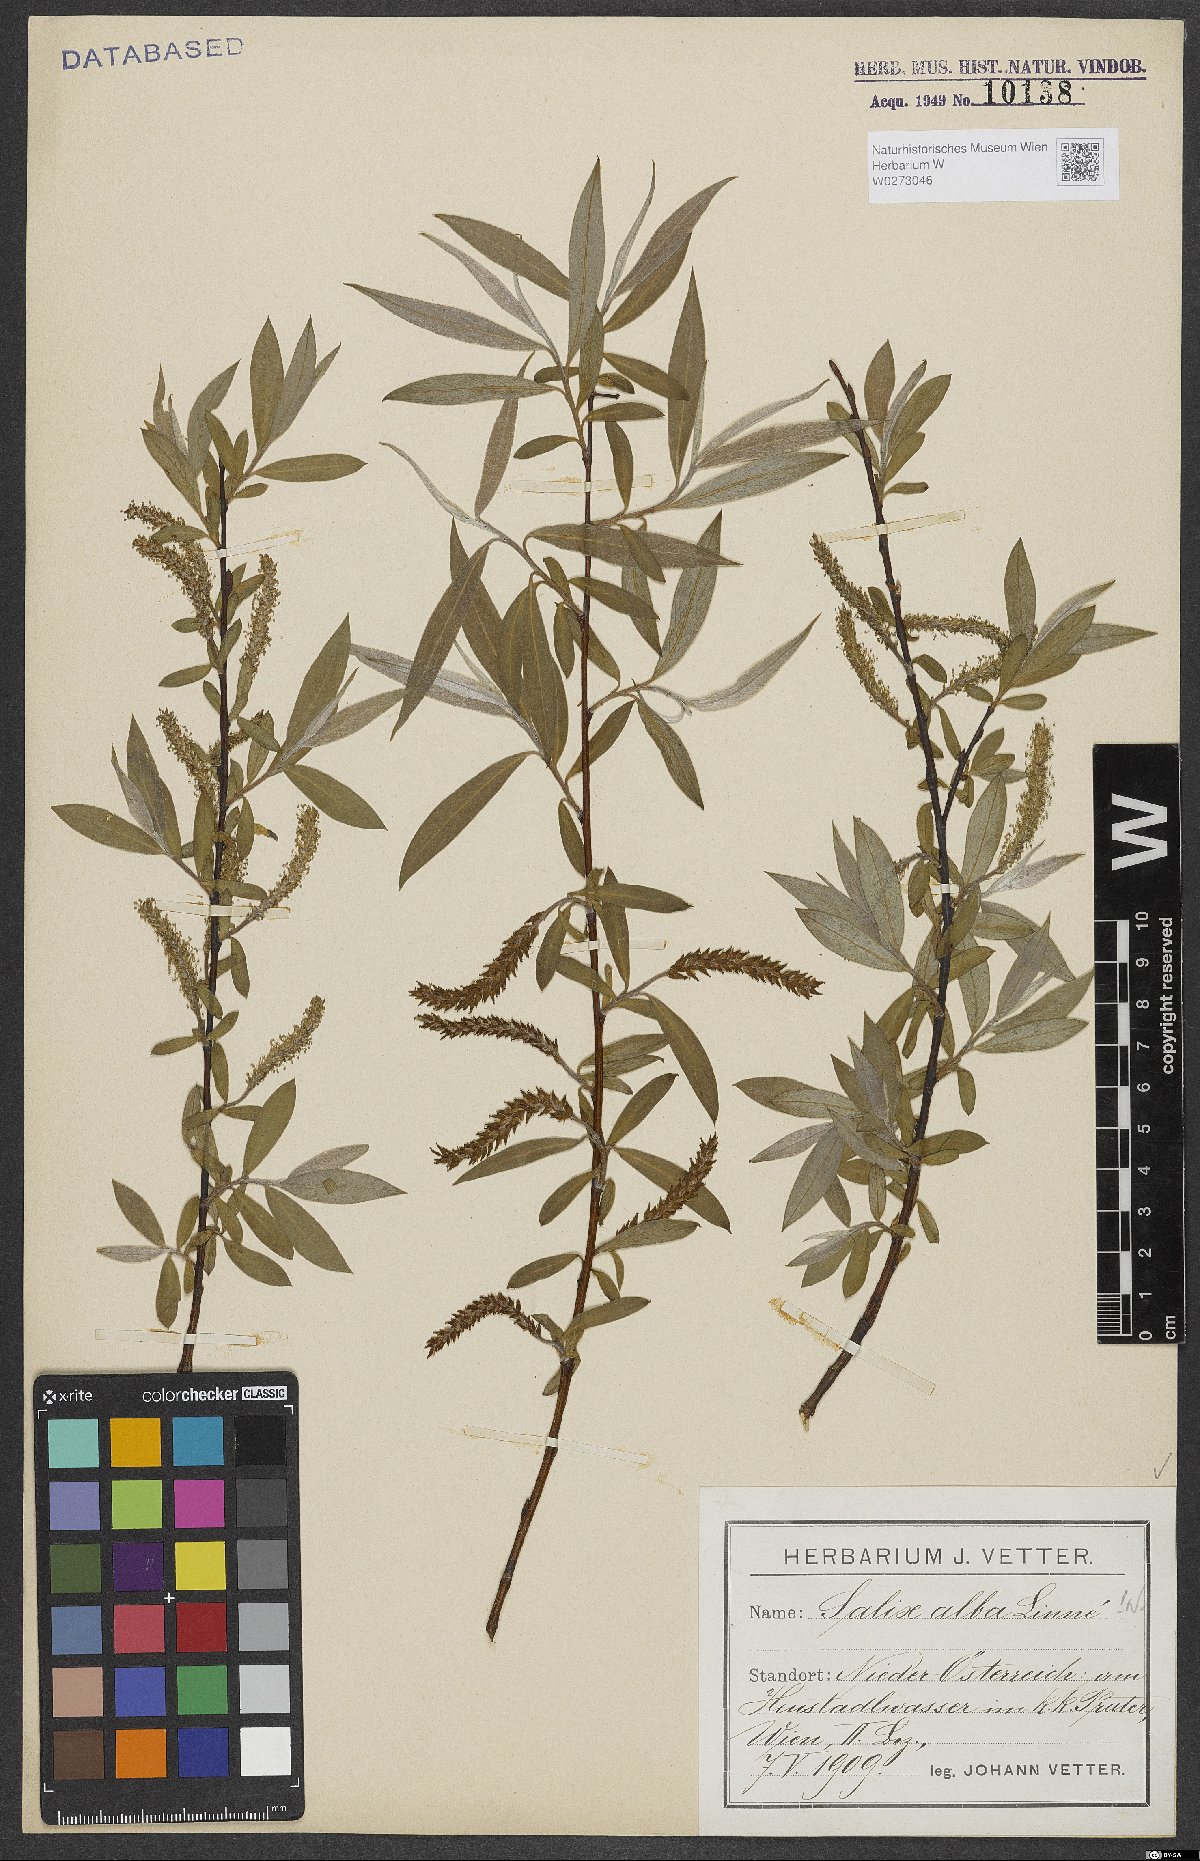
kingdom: Plantae
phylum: Tracheophyta
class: Magnoliopsida
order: Malpighiales
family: Salicaceae
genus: Salix
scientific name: Salix alba
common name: White willow
